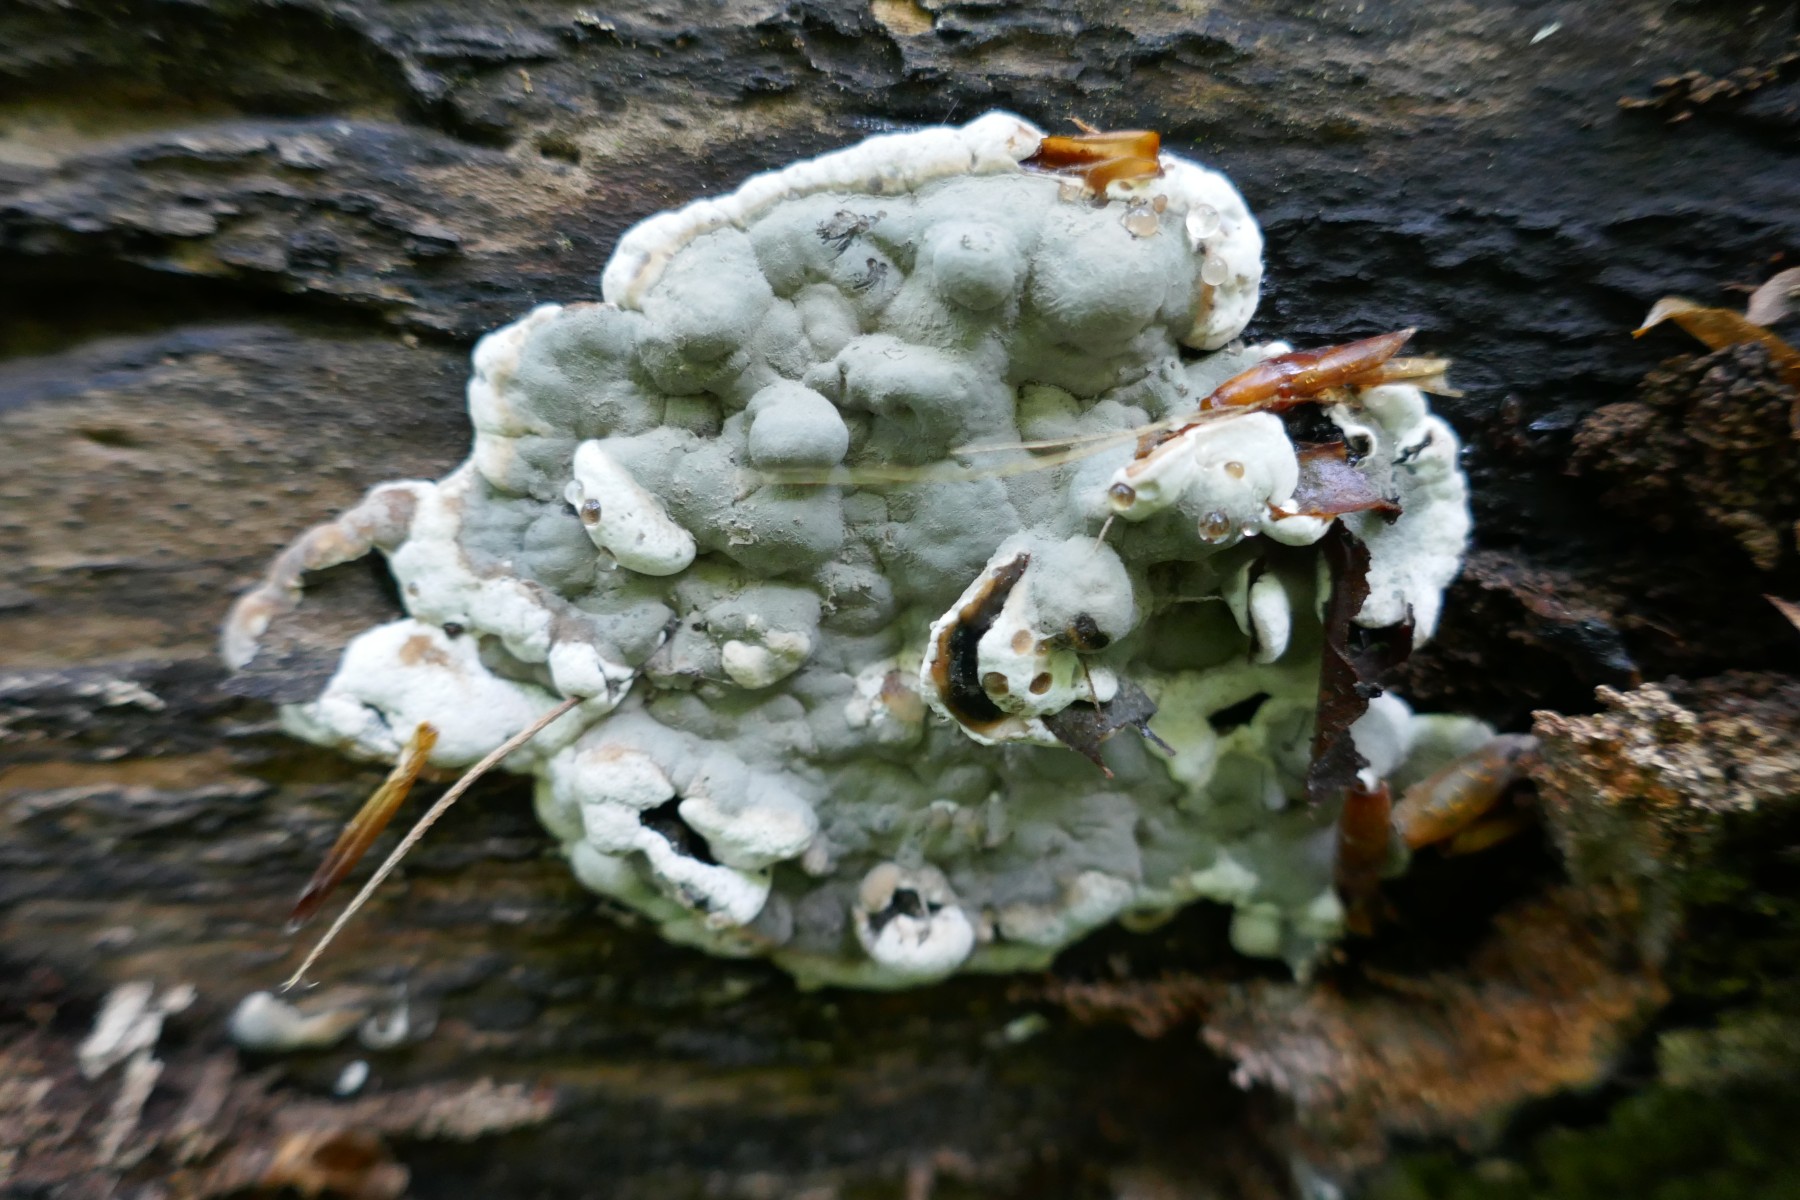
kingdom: Fungi
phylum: Ascomycota
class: Sordariomycetes
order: Xylariales
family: Xylariaceae
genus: Kretzschmaria
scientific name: Kretzschmaria deusta
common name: stor kulsvamp
